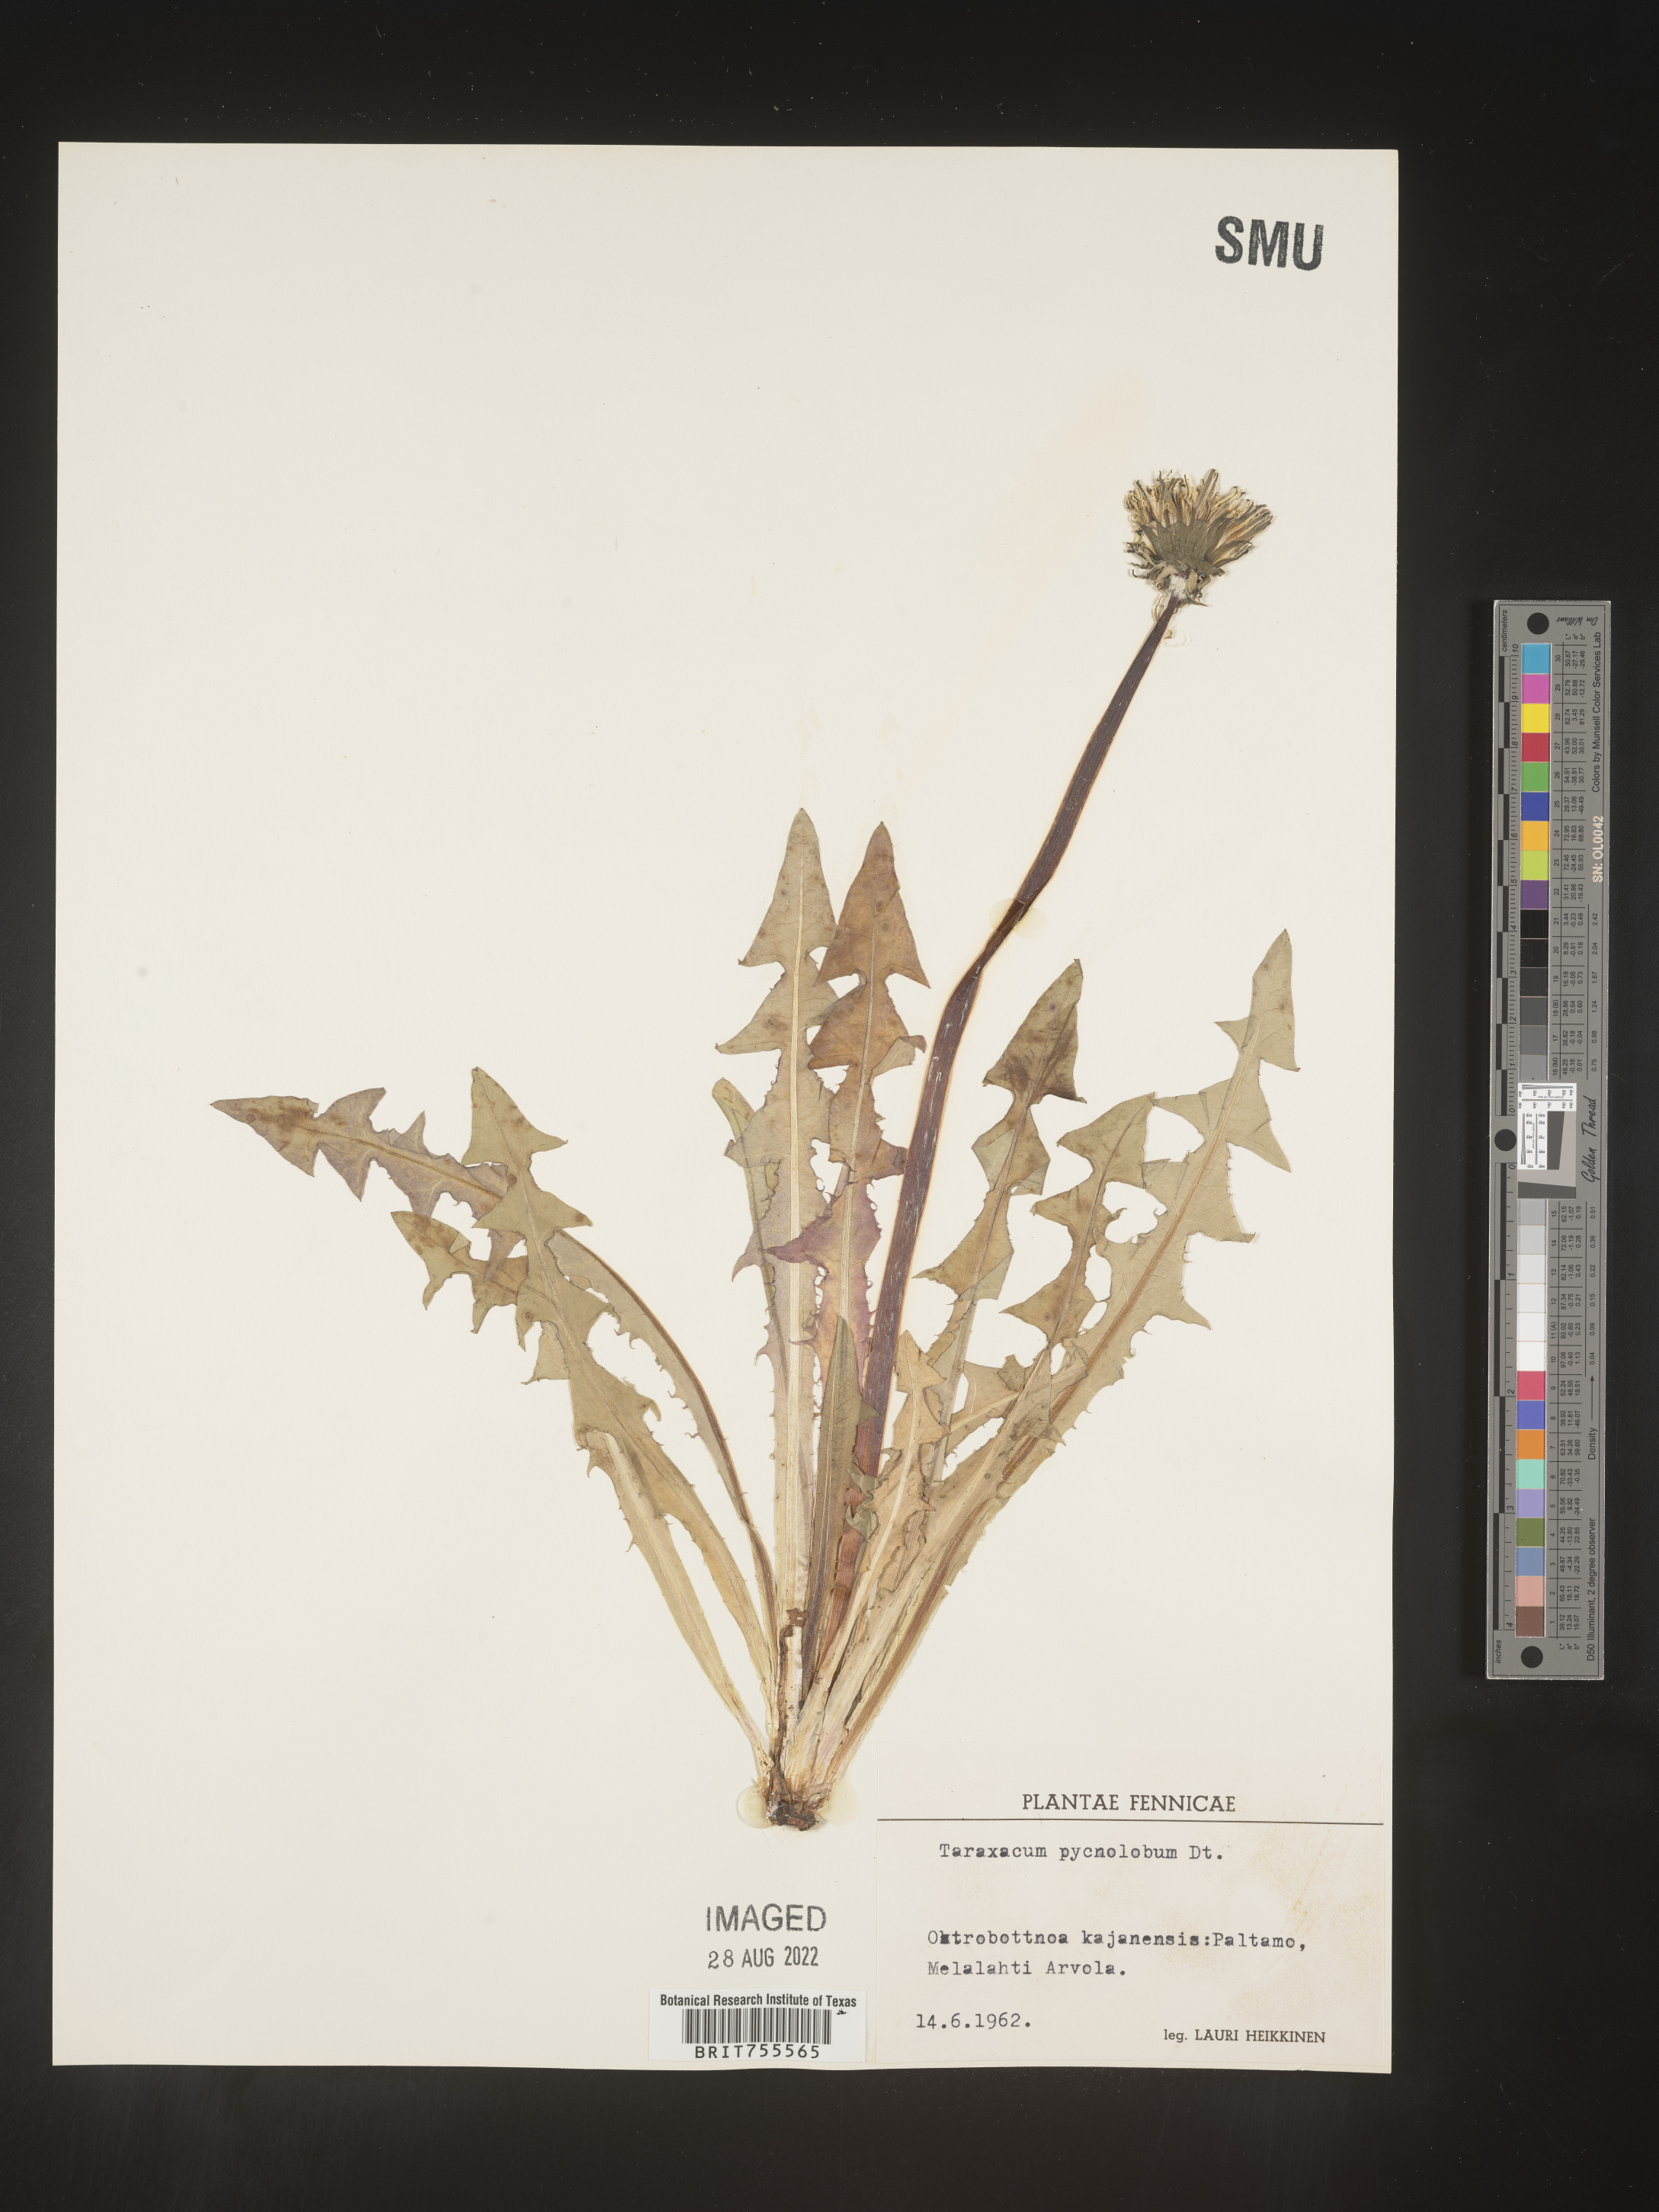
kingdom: Plantae
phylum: Tracheophyta
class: Magnoliopsida
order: Asterales
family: Asteraceae
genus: Taraxacum
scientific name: Taraxacum
